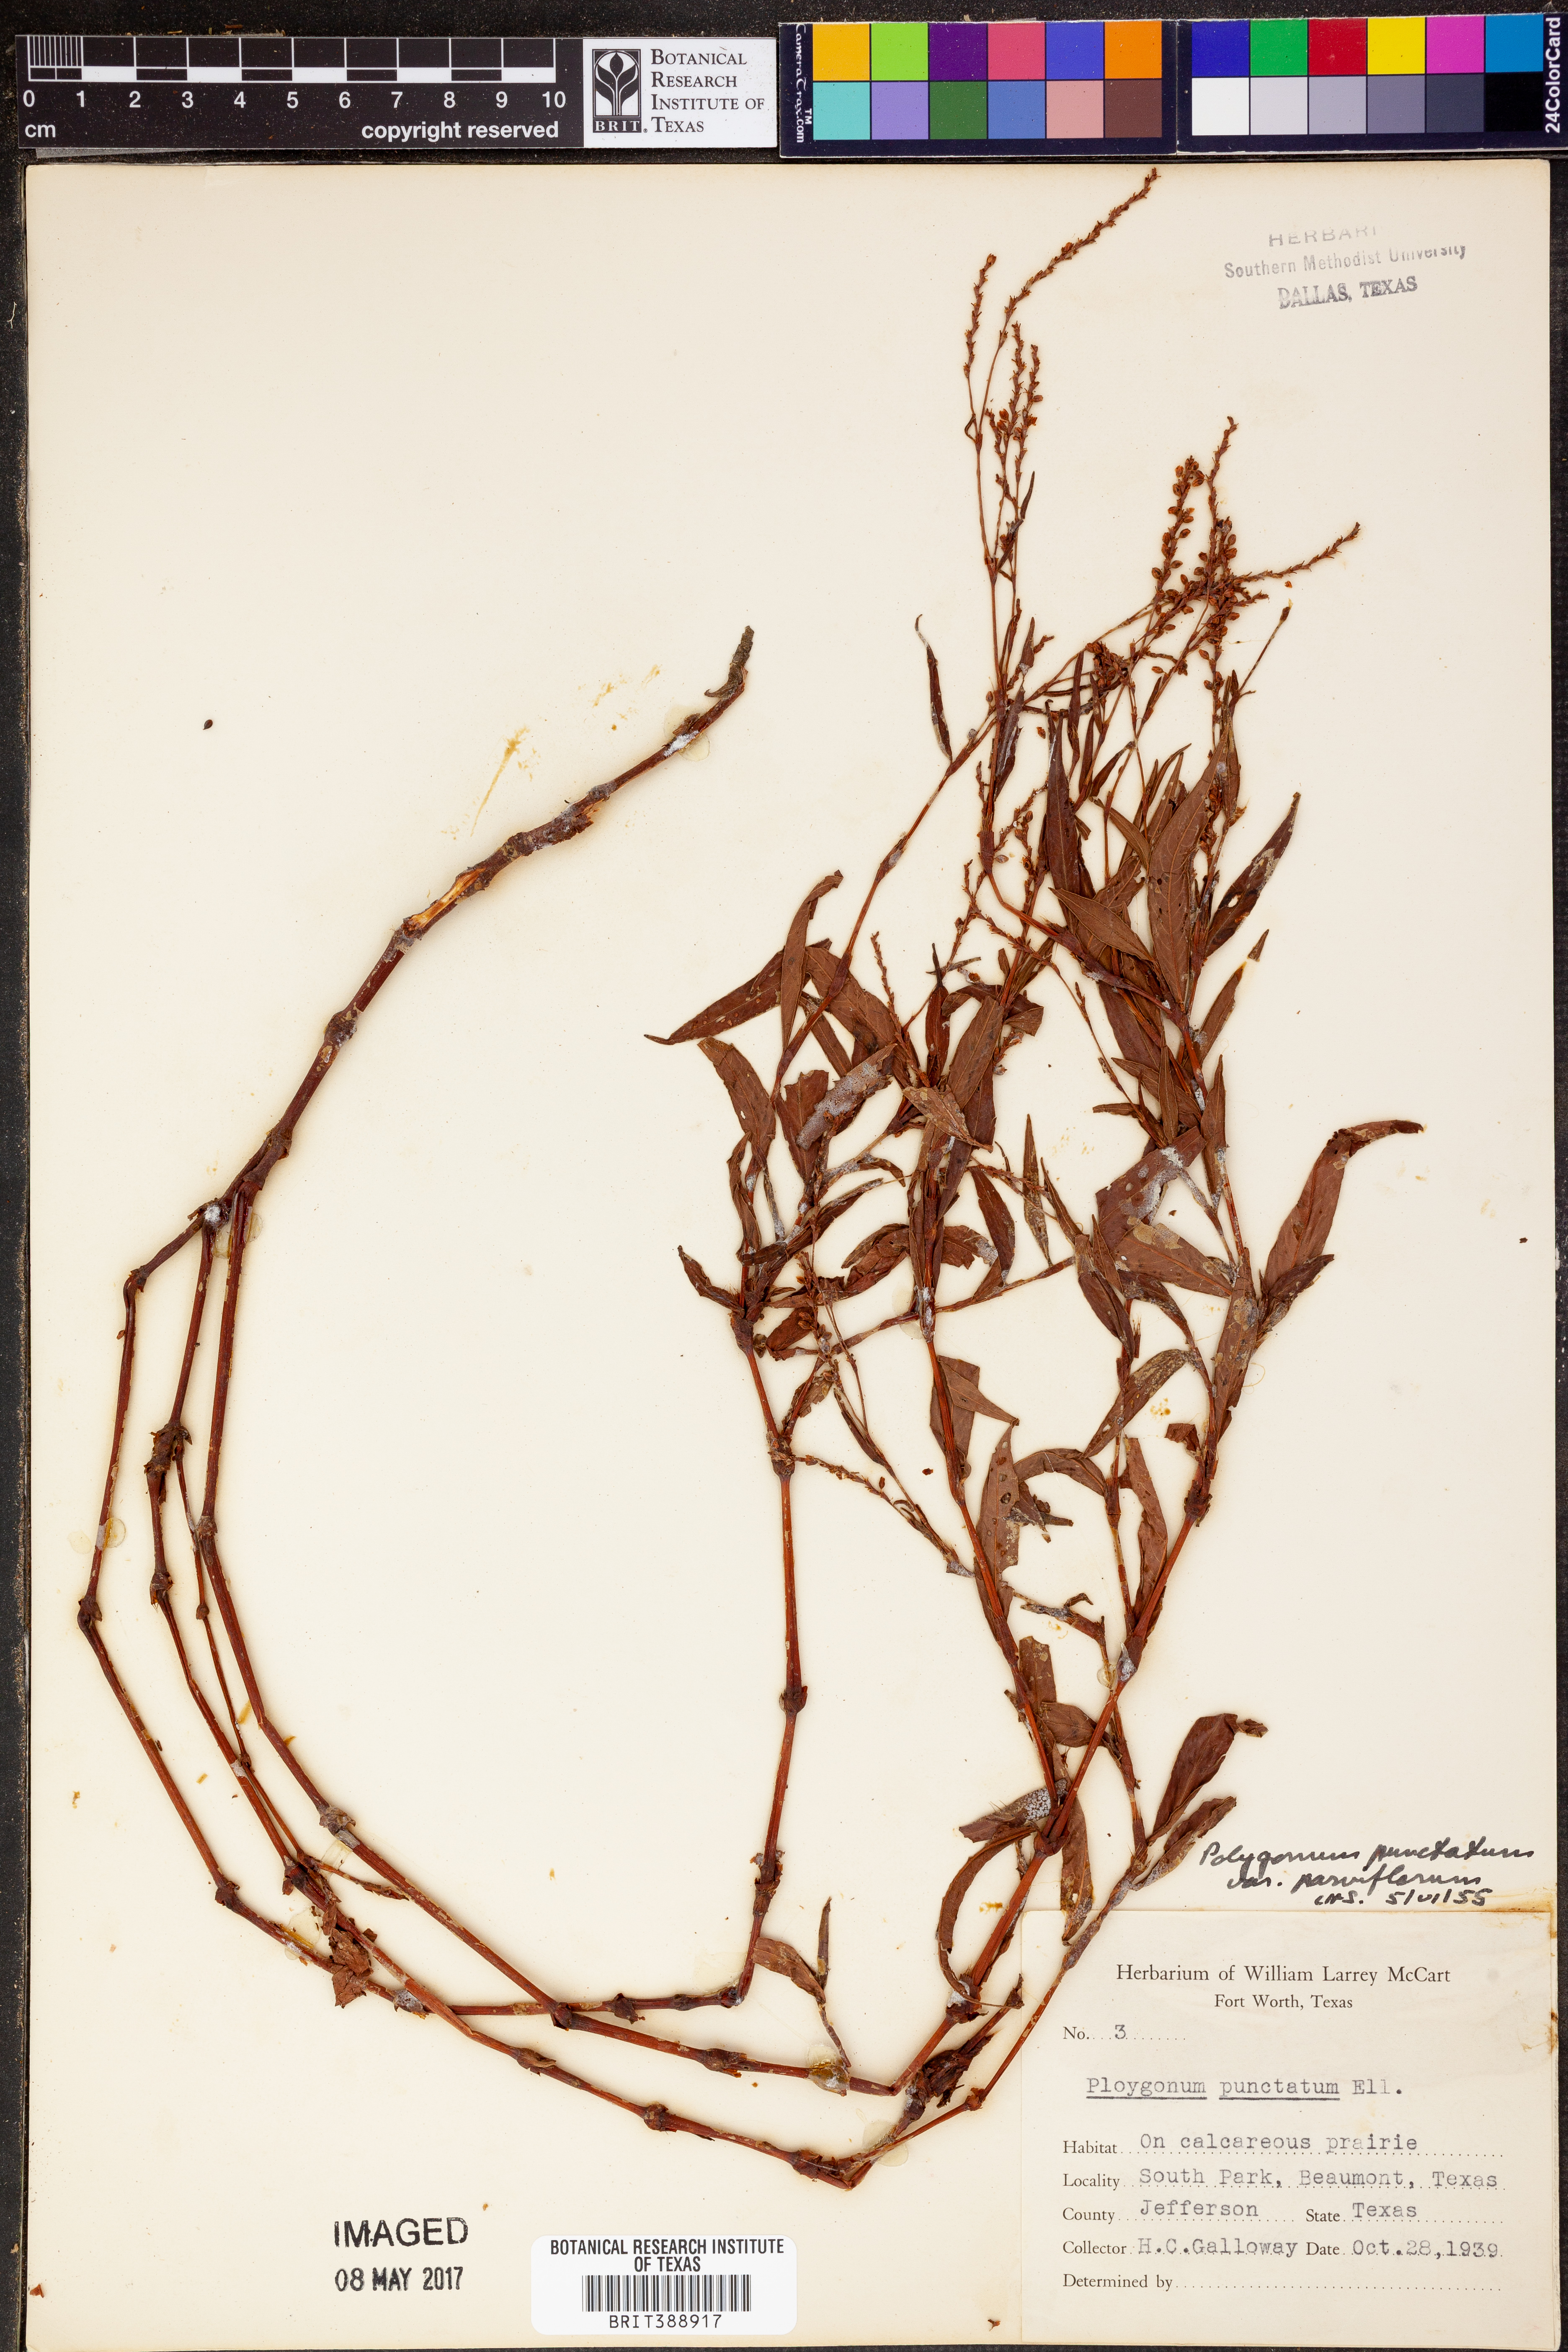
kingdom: Plantae
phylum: Tracheophyta
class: Magnoliopsida
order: Caryophyllales
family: Polygonaceae
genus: Persicaria
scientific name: Persicaria punctata
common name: Dotted smartweed
